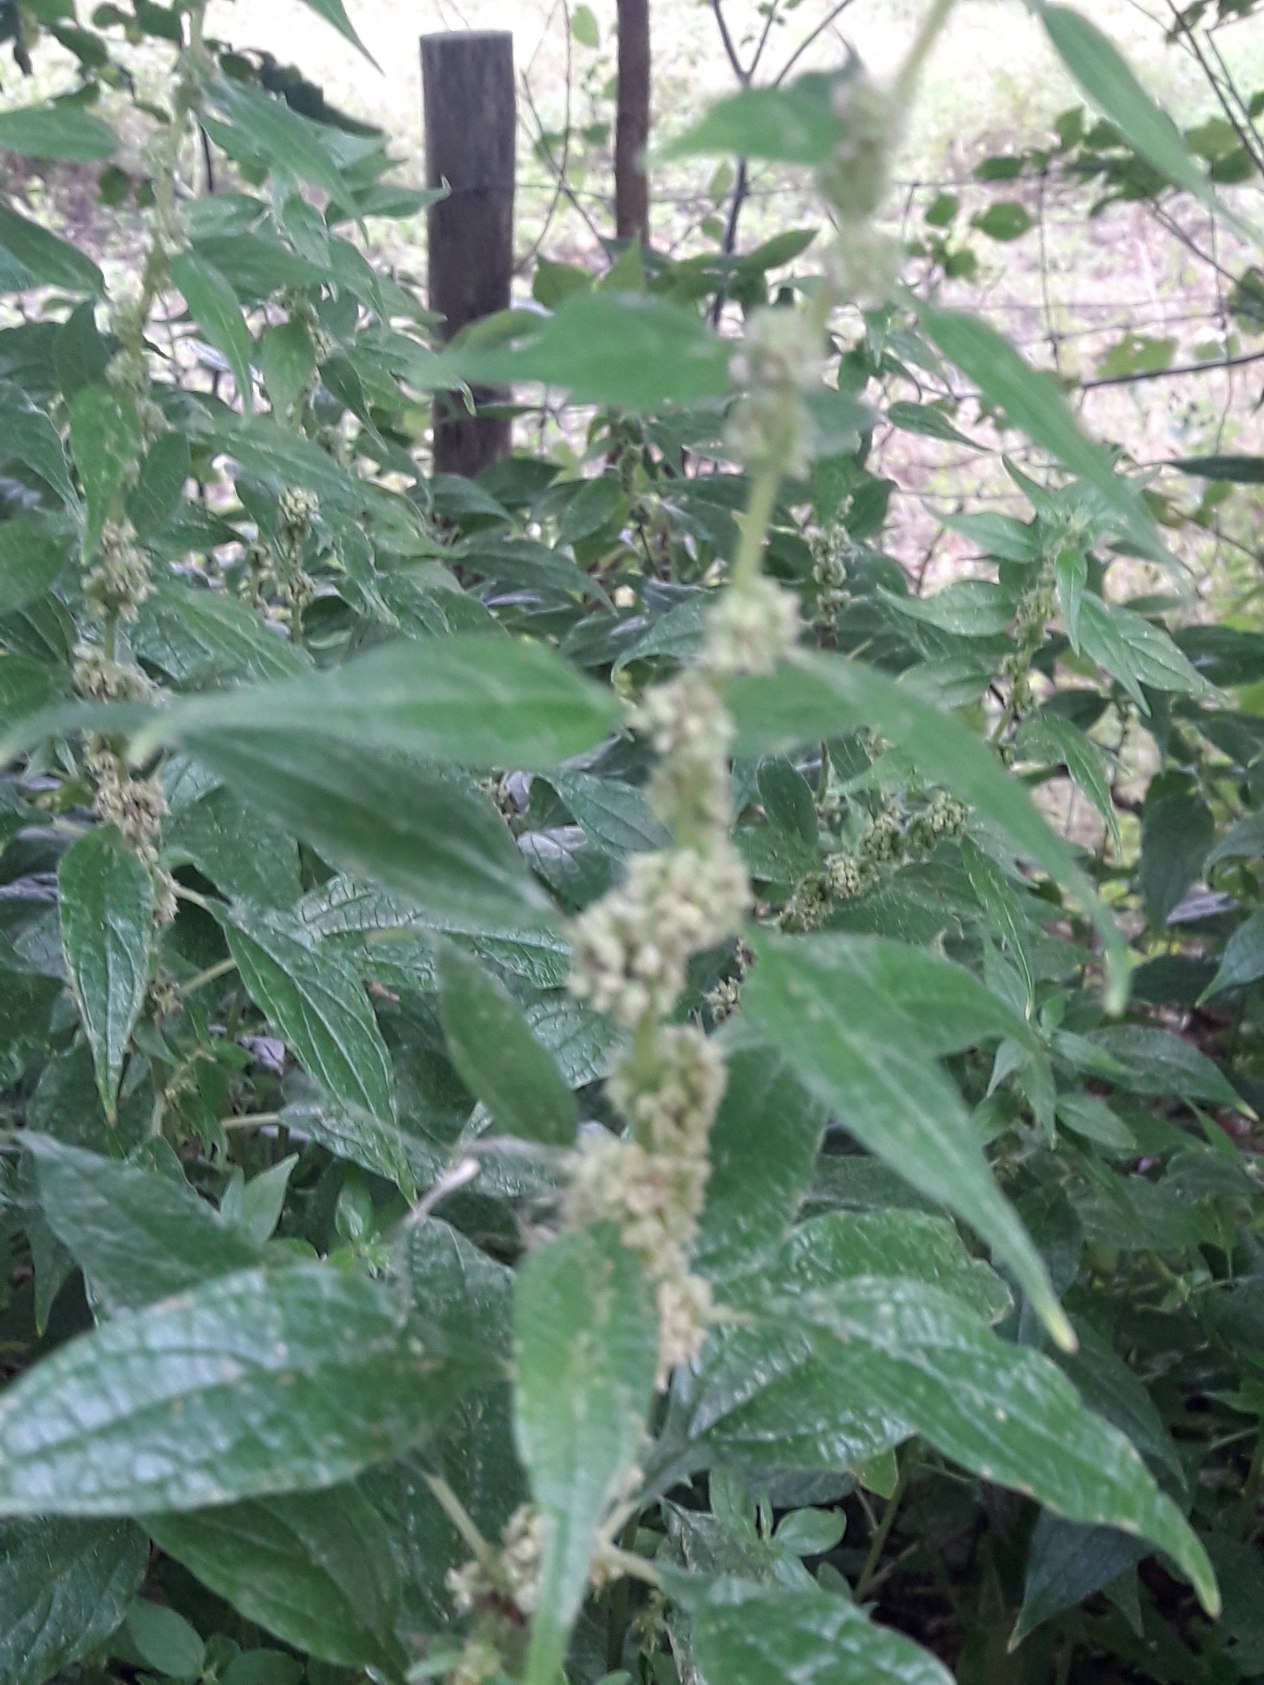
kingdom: Plantae
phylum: Tracheophyta
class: Magnoliopsida
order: Rosales
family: Urticaceae
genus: Parietaria
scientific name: Parietaria officinalis
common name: Almindelig springknap
